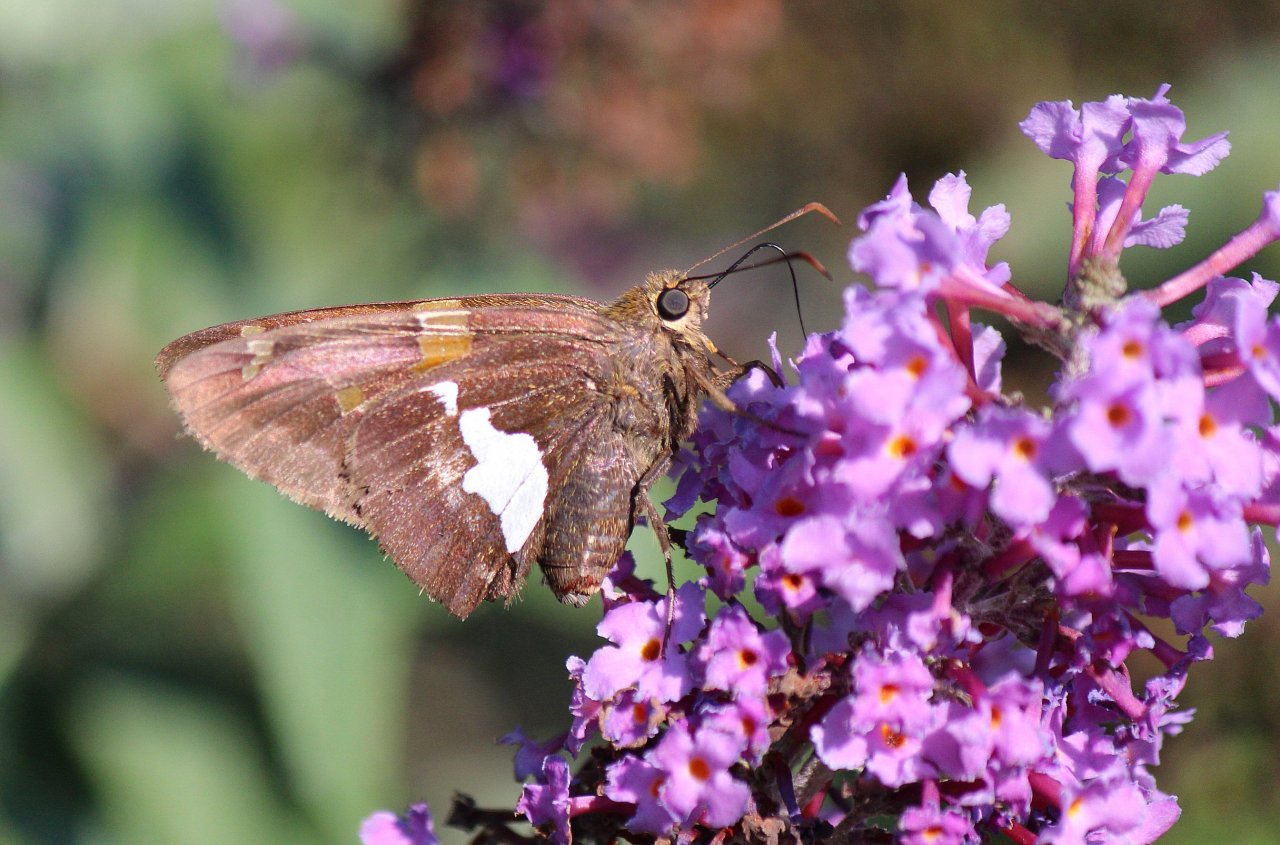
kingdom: Animalia
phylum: Arthropoda
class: Insecta
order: Lepidoptera
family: Hesperiidae
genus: Epargyreus
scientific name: Epargyreus clarus
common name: Silver-spotted Skipper
